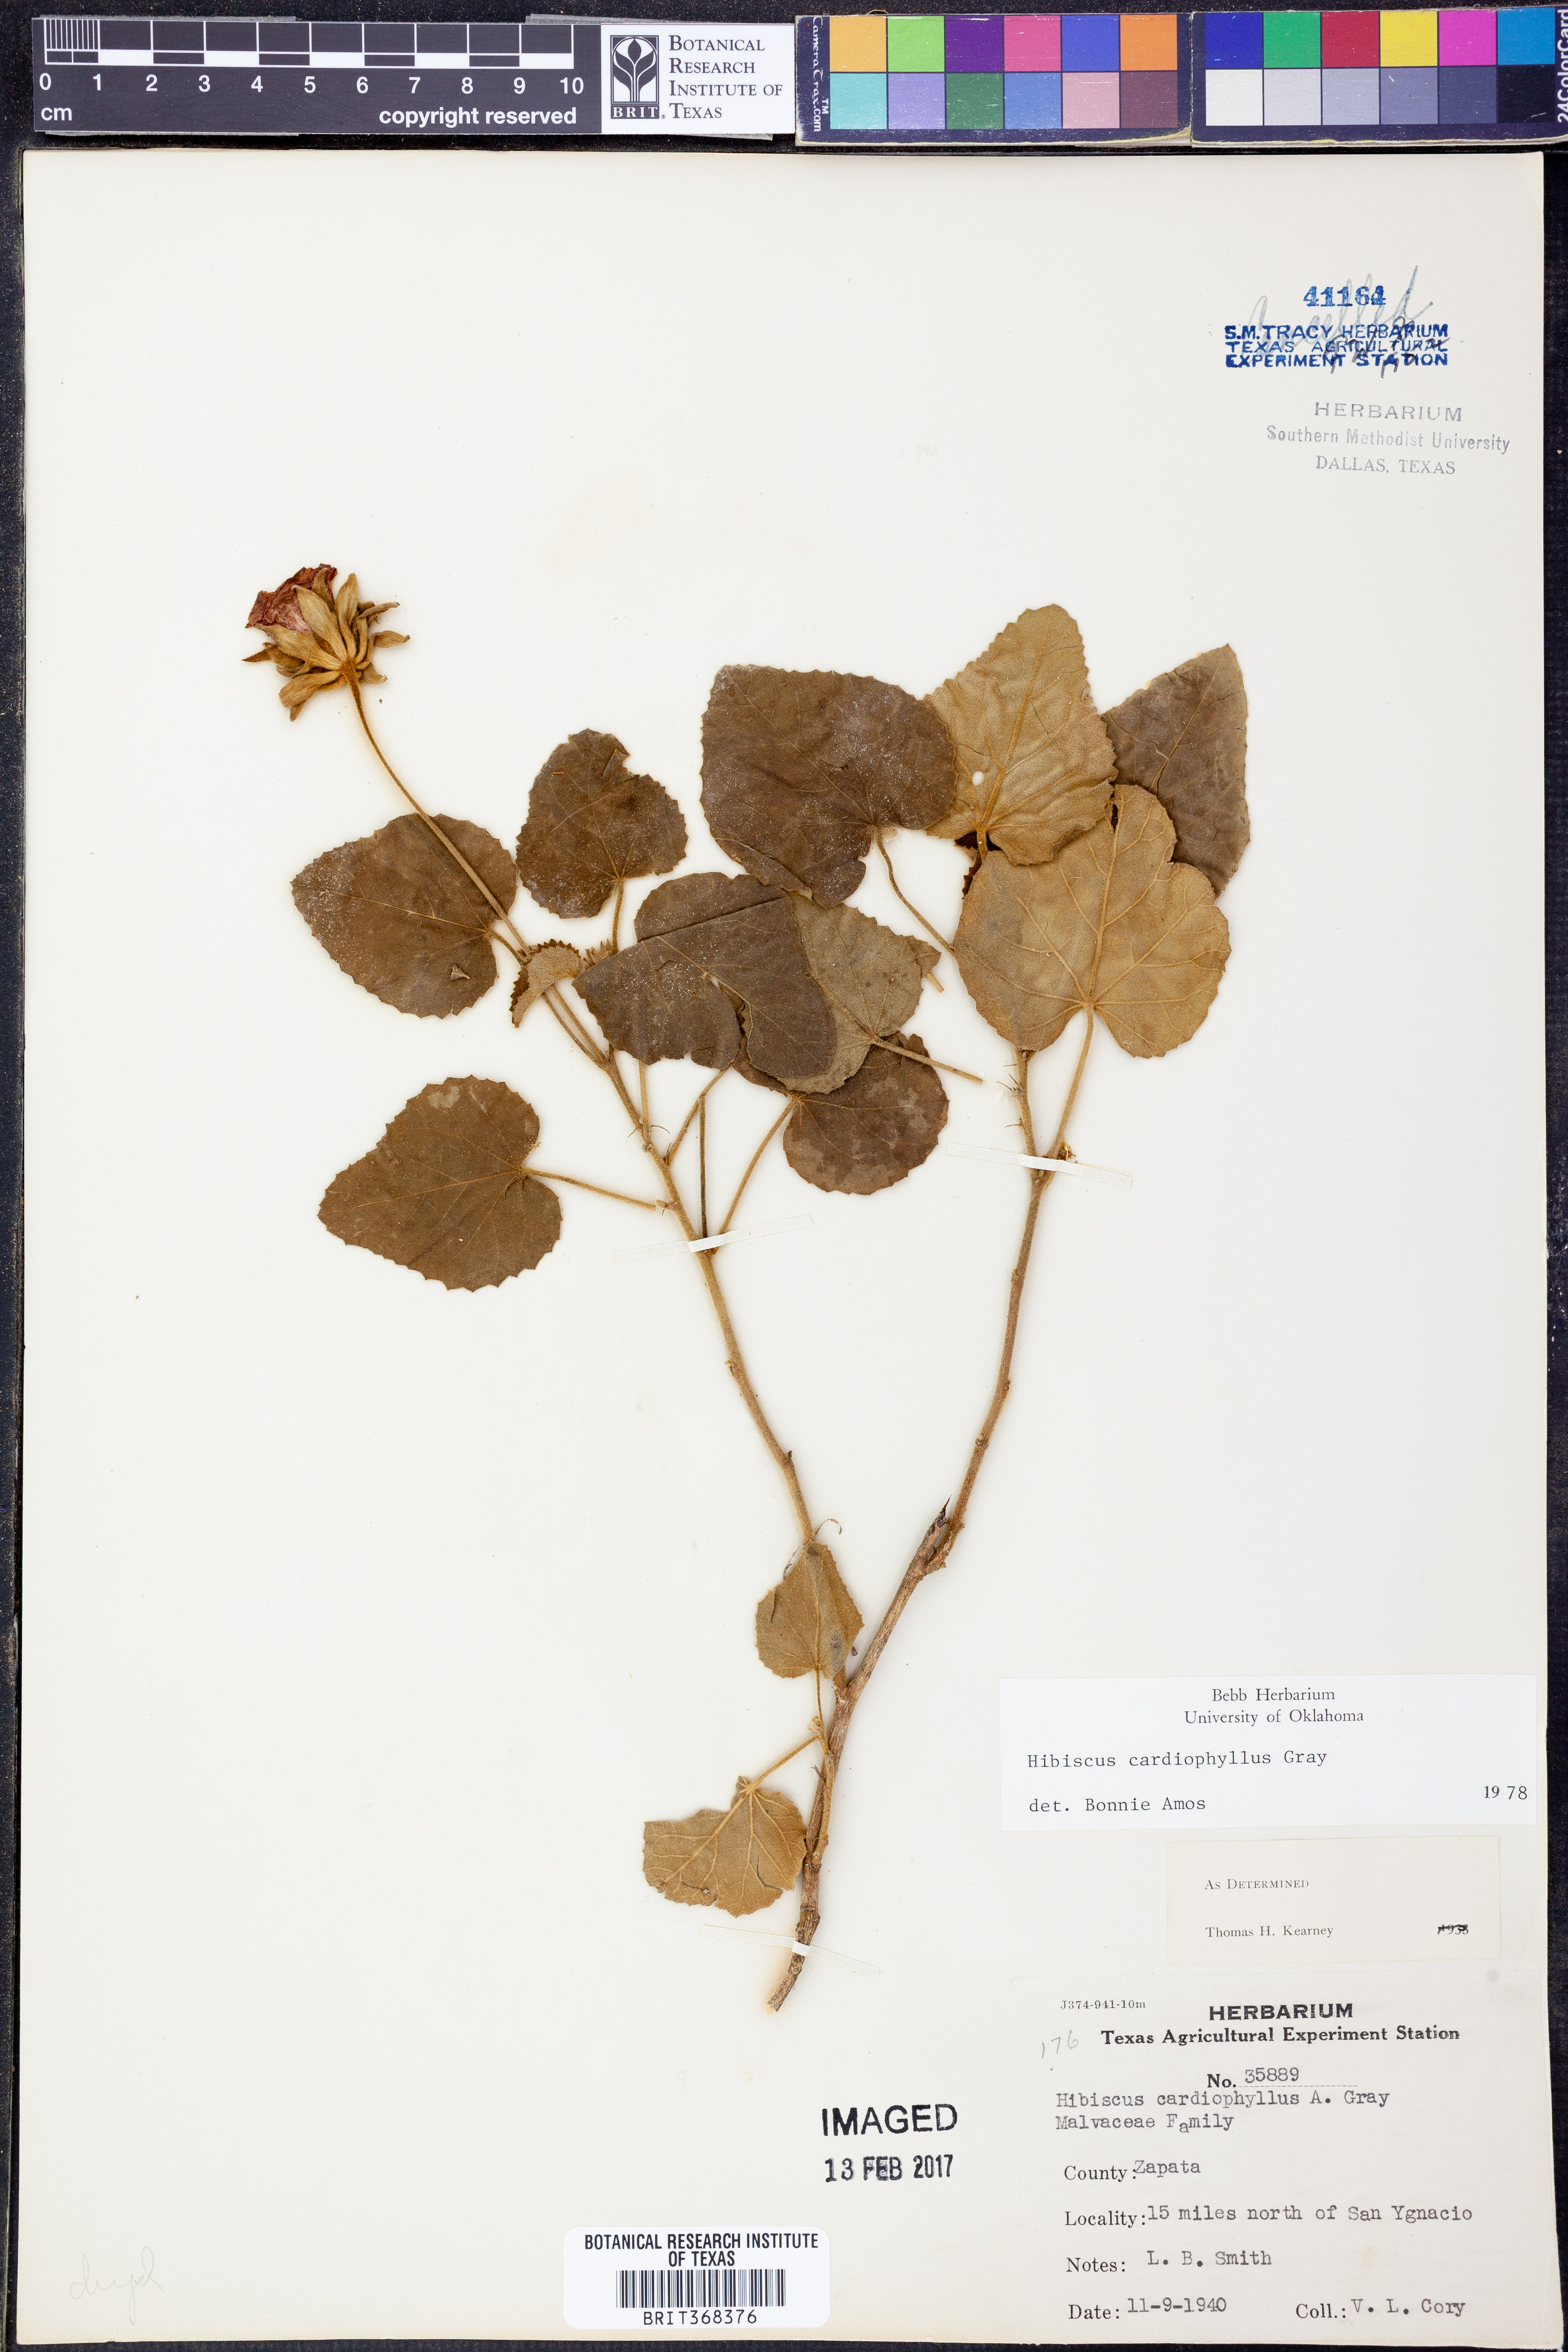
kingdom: Plantae
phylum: Tracheophyta
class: Magnoliopsida
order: Malvales
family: Malvaceae
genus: Abelmoschus
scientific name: Abelmoschus moschatus
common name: Musk okra
